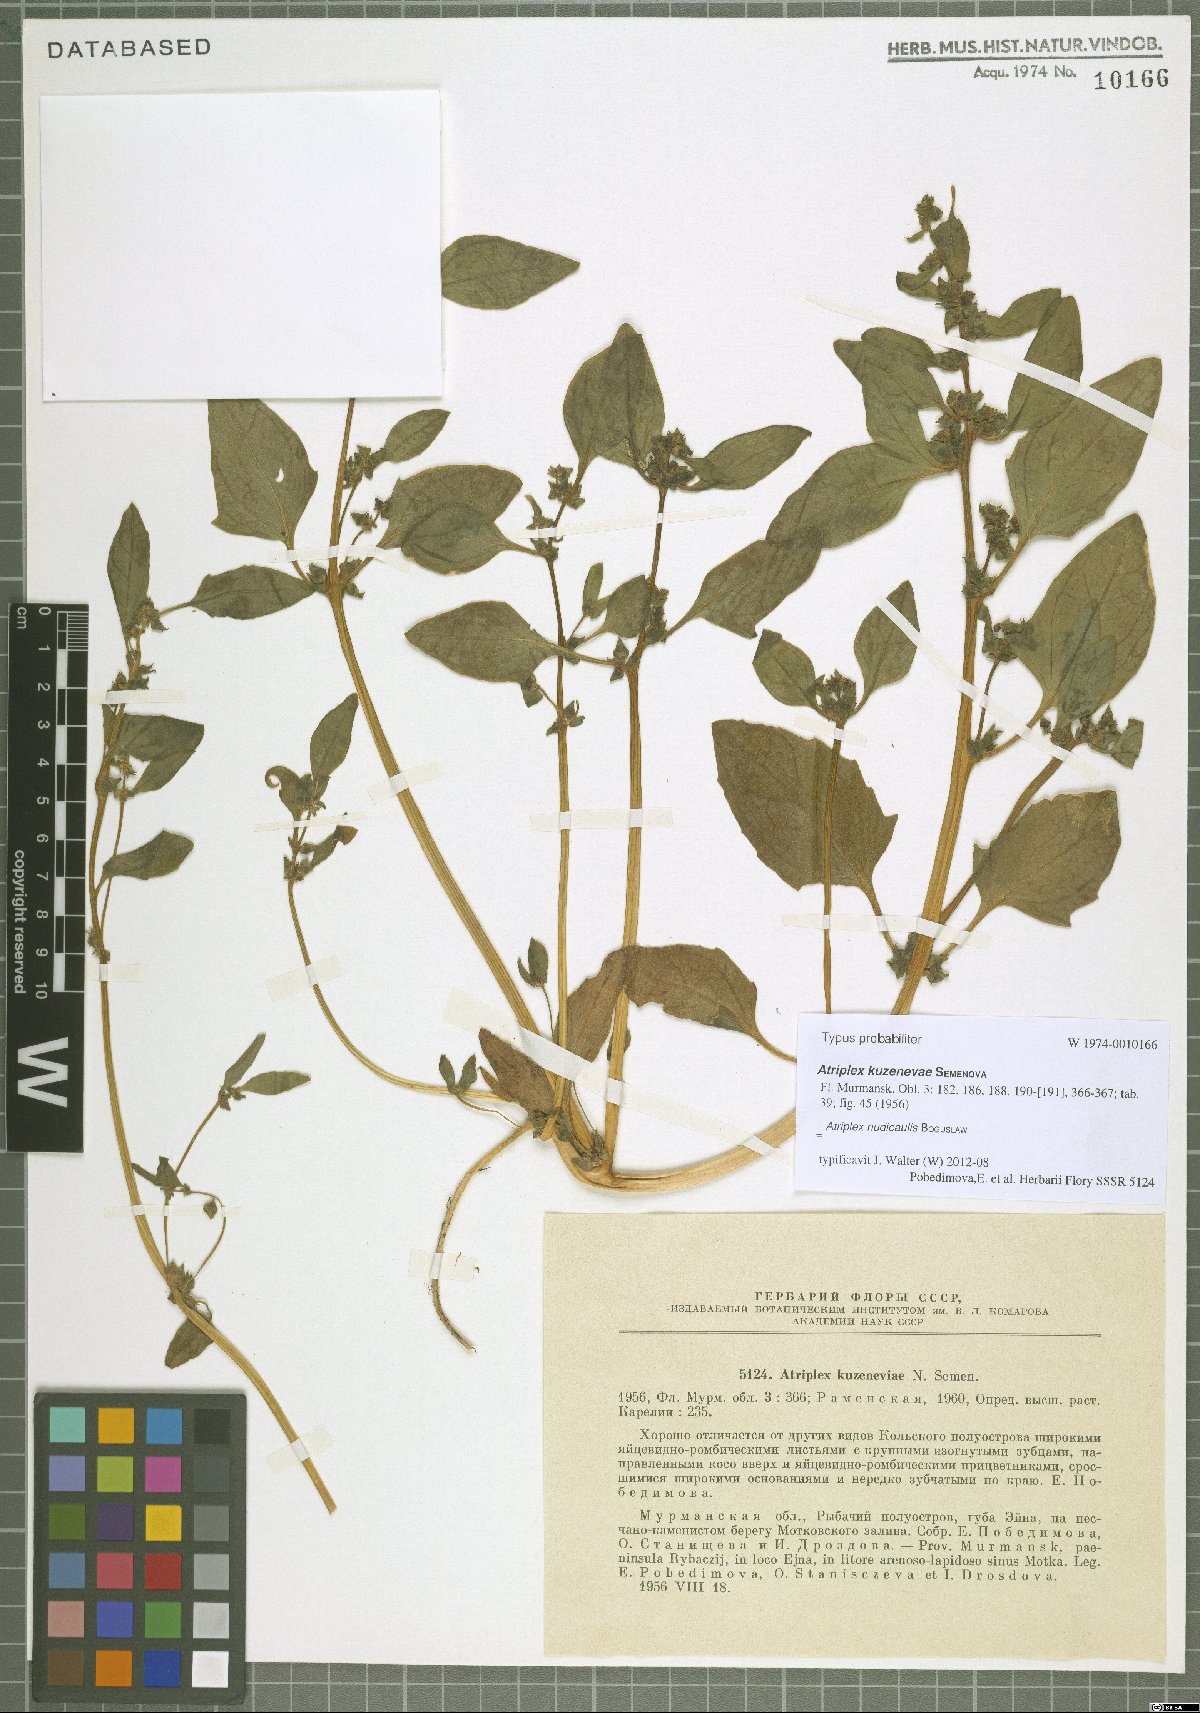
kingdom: Plantae
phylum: Tracheophyta
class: Magnoliopsida
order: Caryophyllales
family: Amaranthaceae
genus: Atriplex
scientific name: Atriplex nudicaulis
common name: Baltic orache
